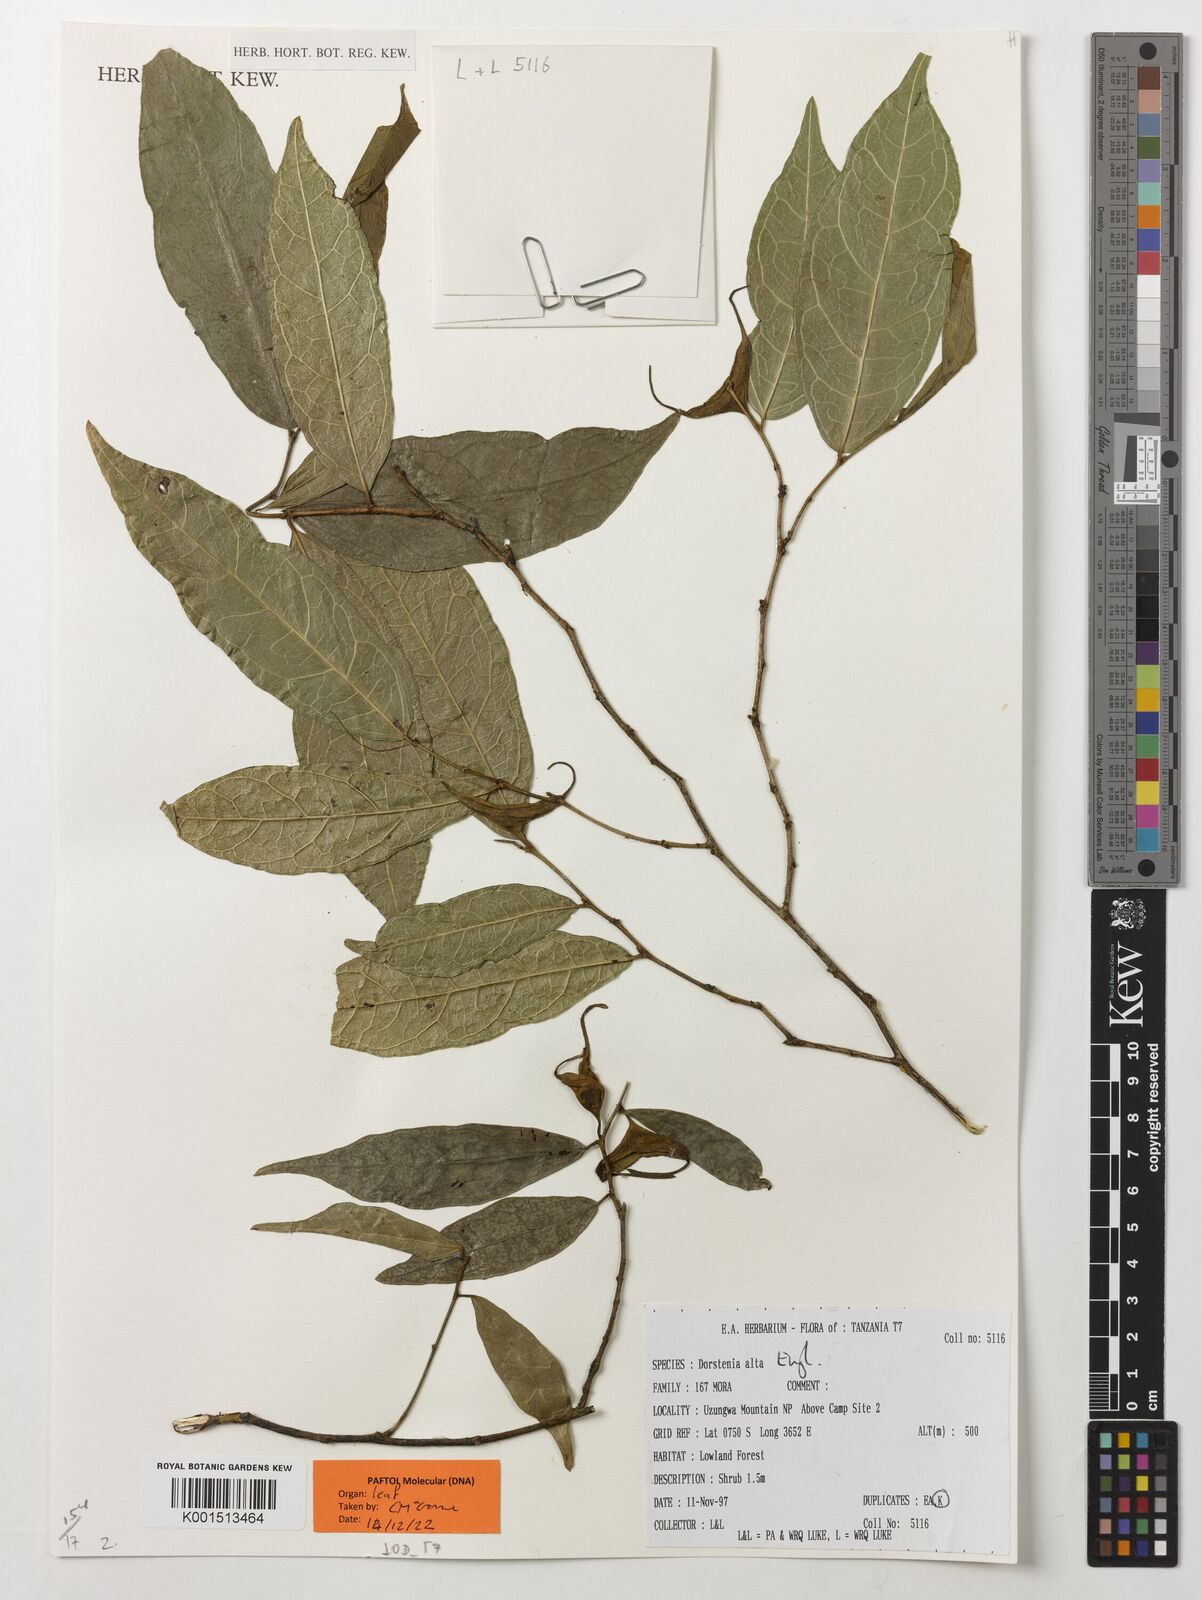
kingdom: Plantae
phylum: Tracheophyta
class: Magnoliopsida
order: Rosales
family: Moraceae
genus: Hijmania
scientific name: Hijmania alta
